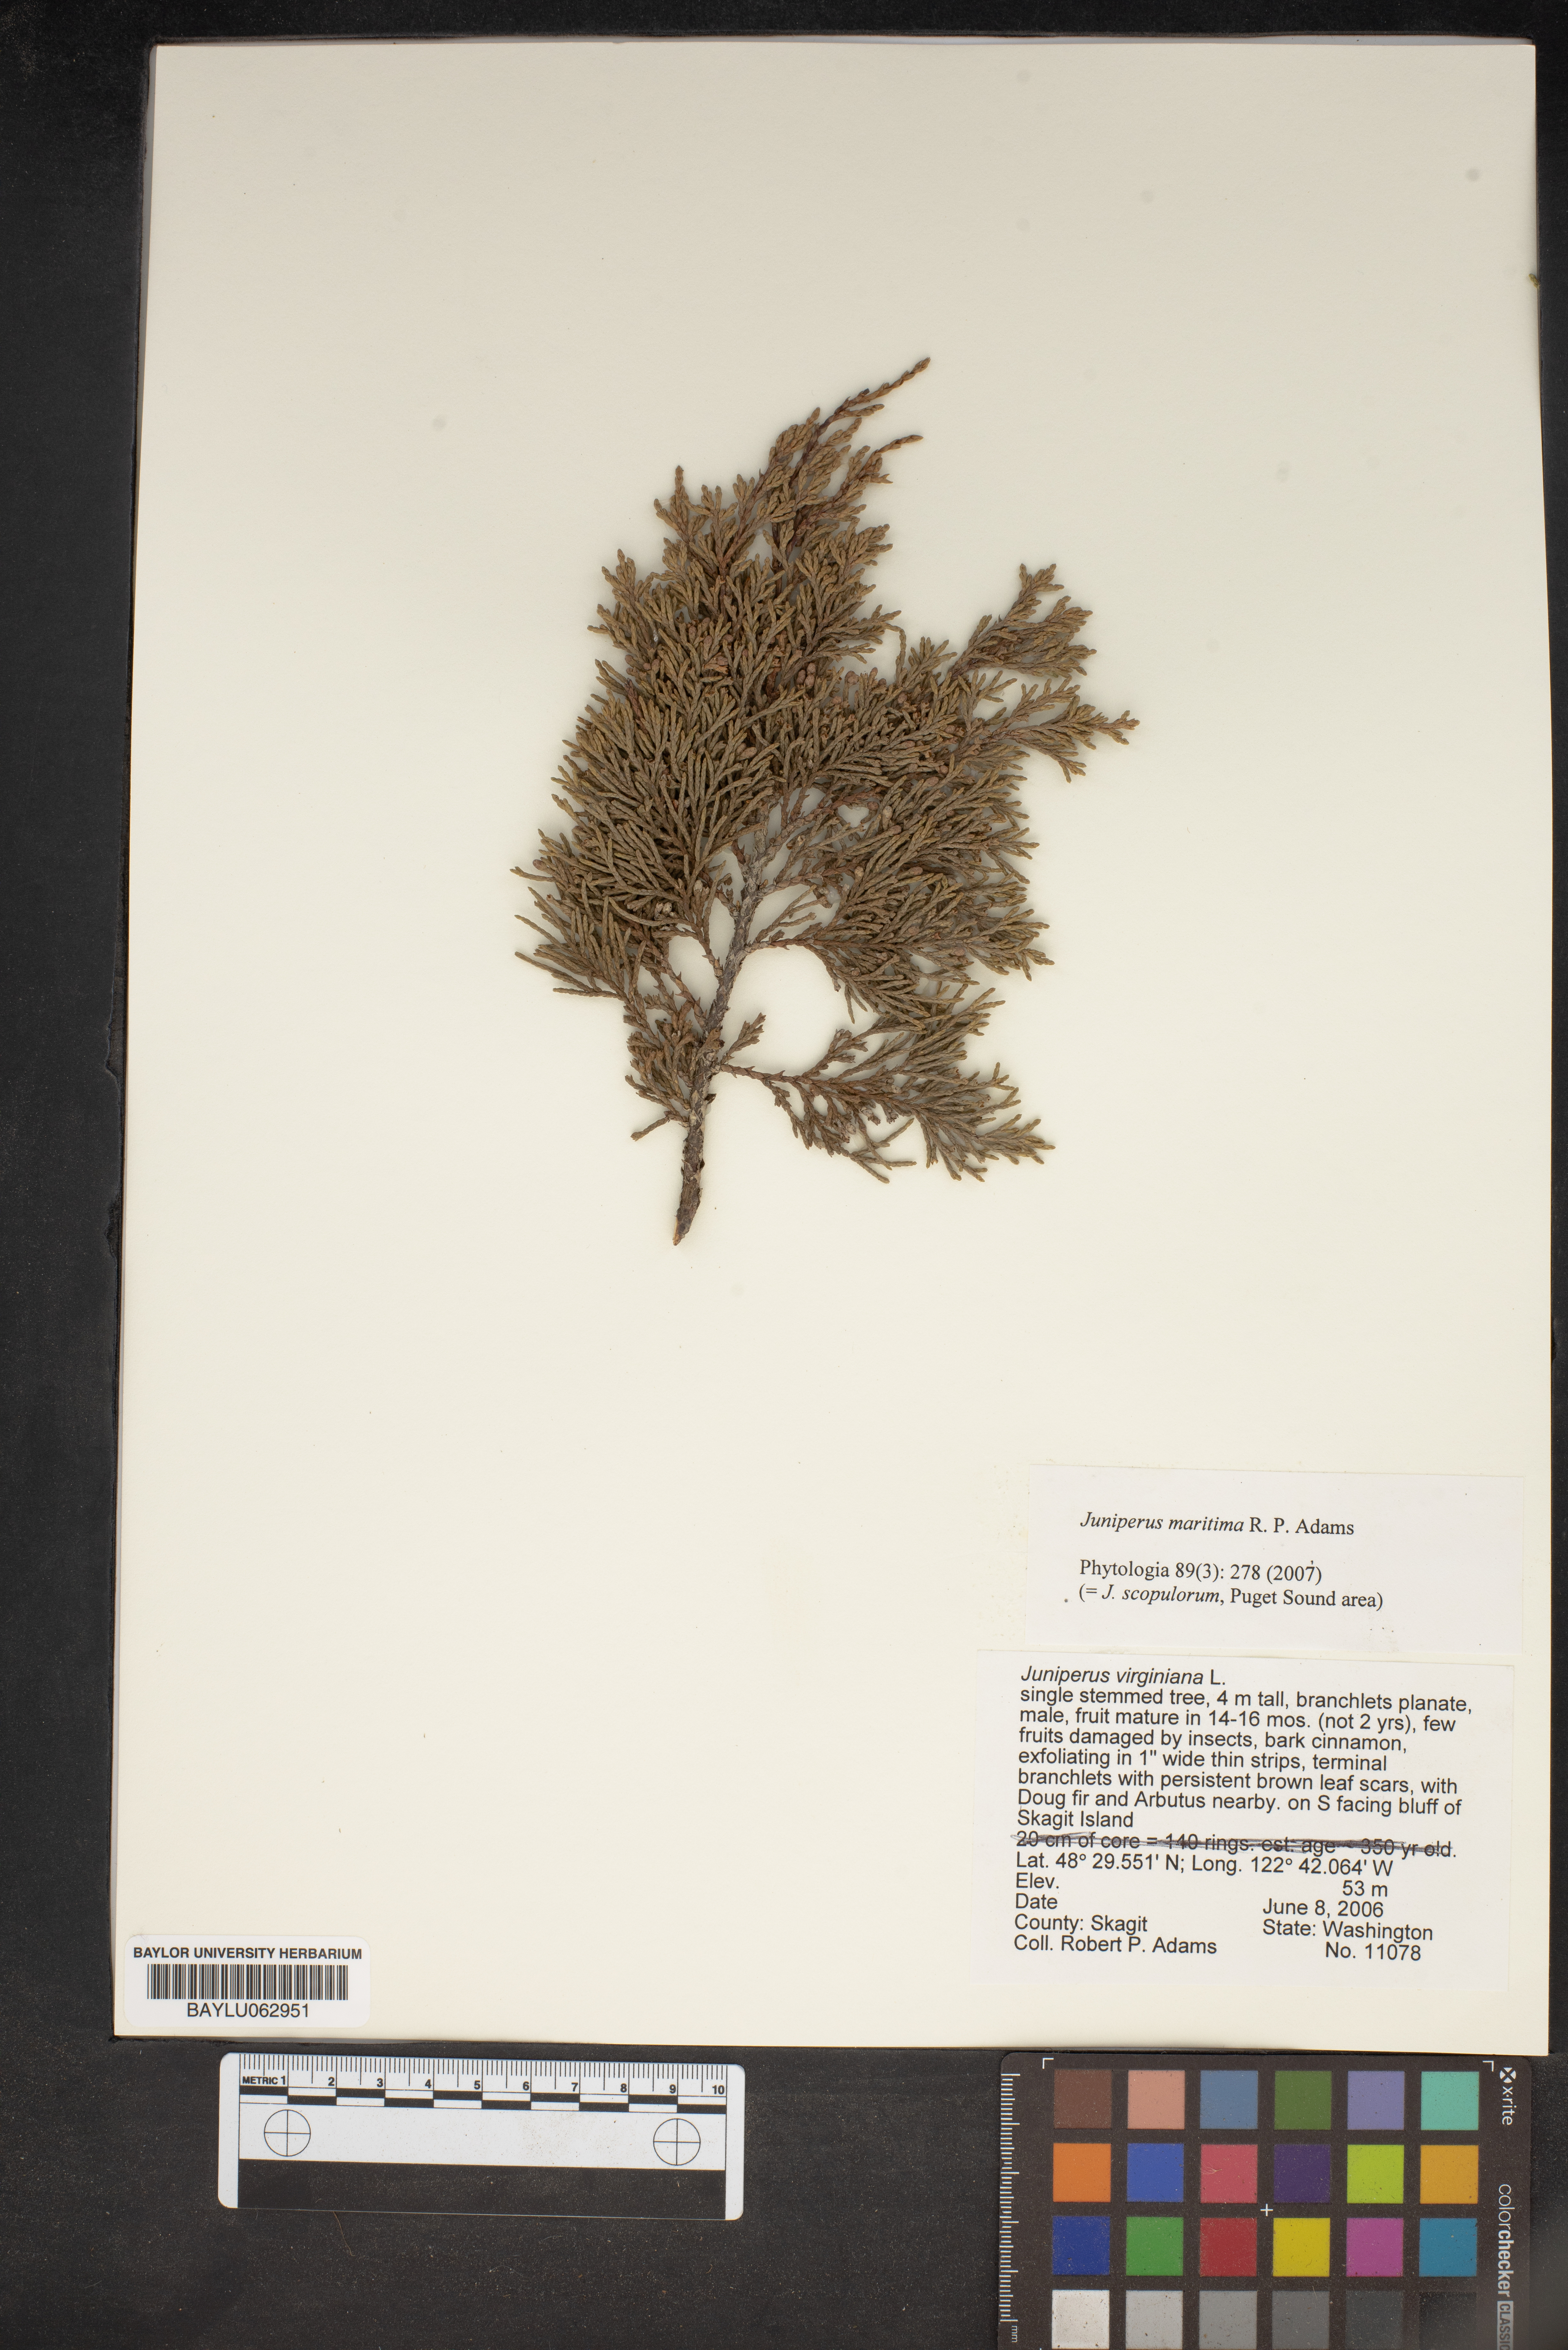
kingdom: Plantae
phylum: Tracheophyta
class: Pinopsida
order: Pinales
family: Cupressaceae
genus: Juniperus
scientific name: Juniperus scopulorum
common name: Rocky mountain juniper
